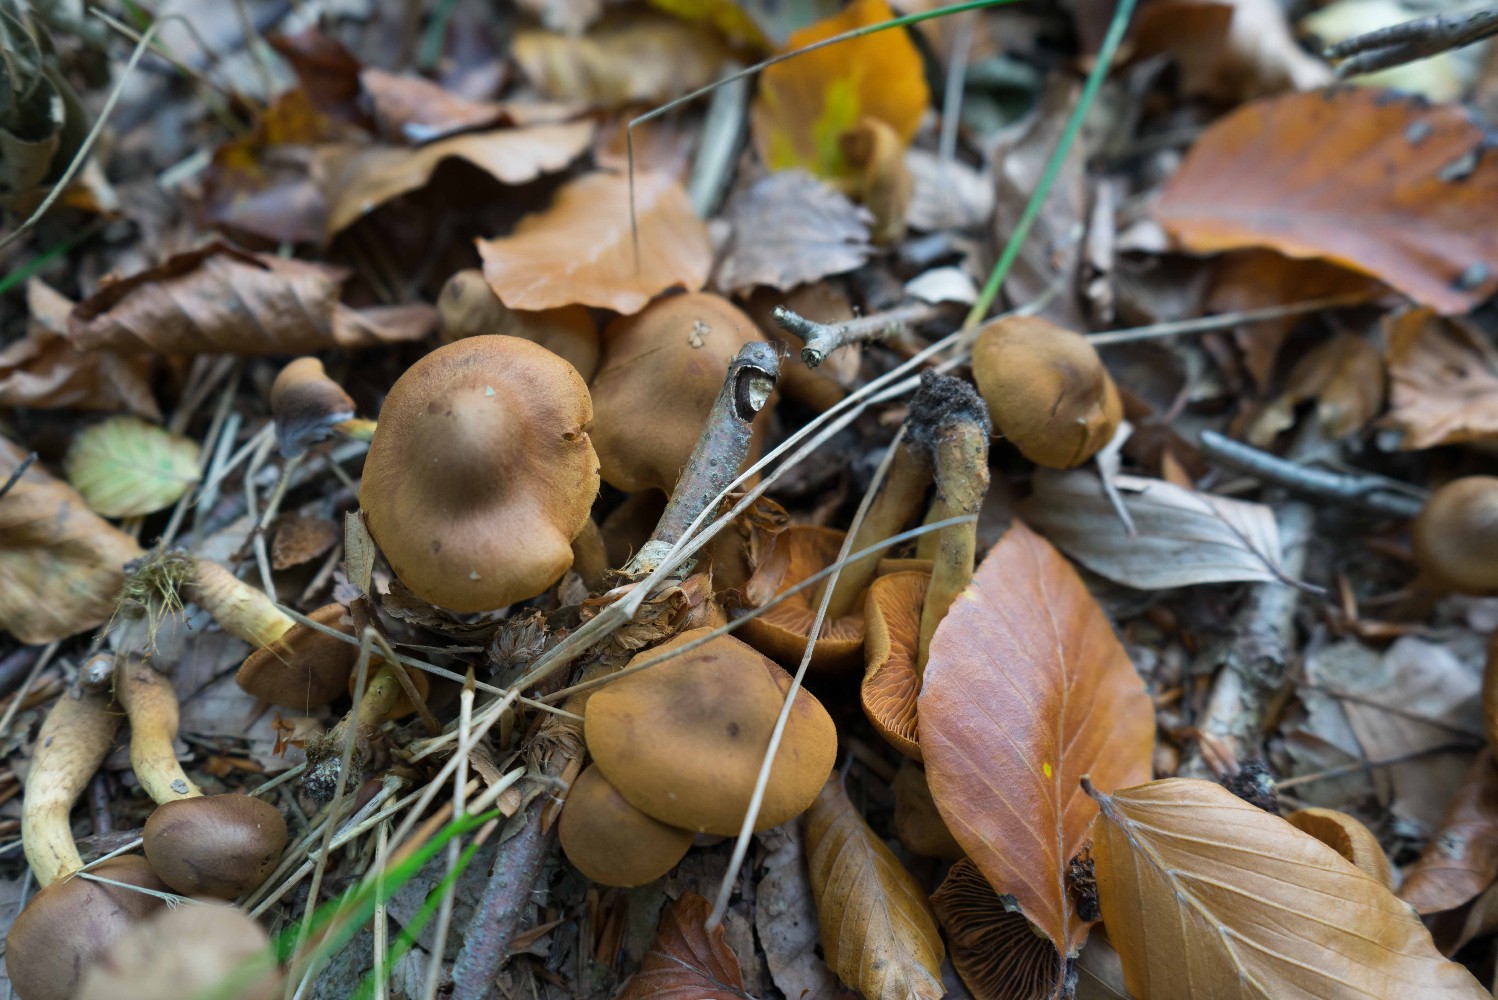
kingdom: Fungi
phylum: Basidiomycota
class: Agaricomycetes
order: Agaricales
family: Cortinariaceae
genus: Cortinarius
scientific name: Cortinarius cinnamomeus
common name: kanel-slørhat
